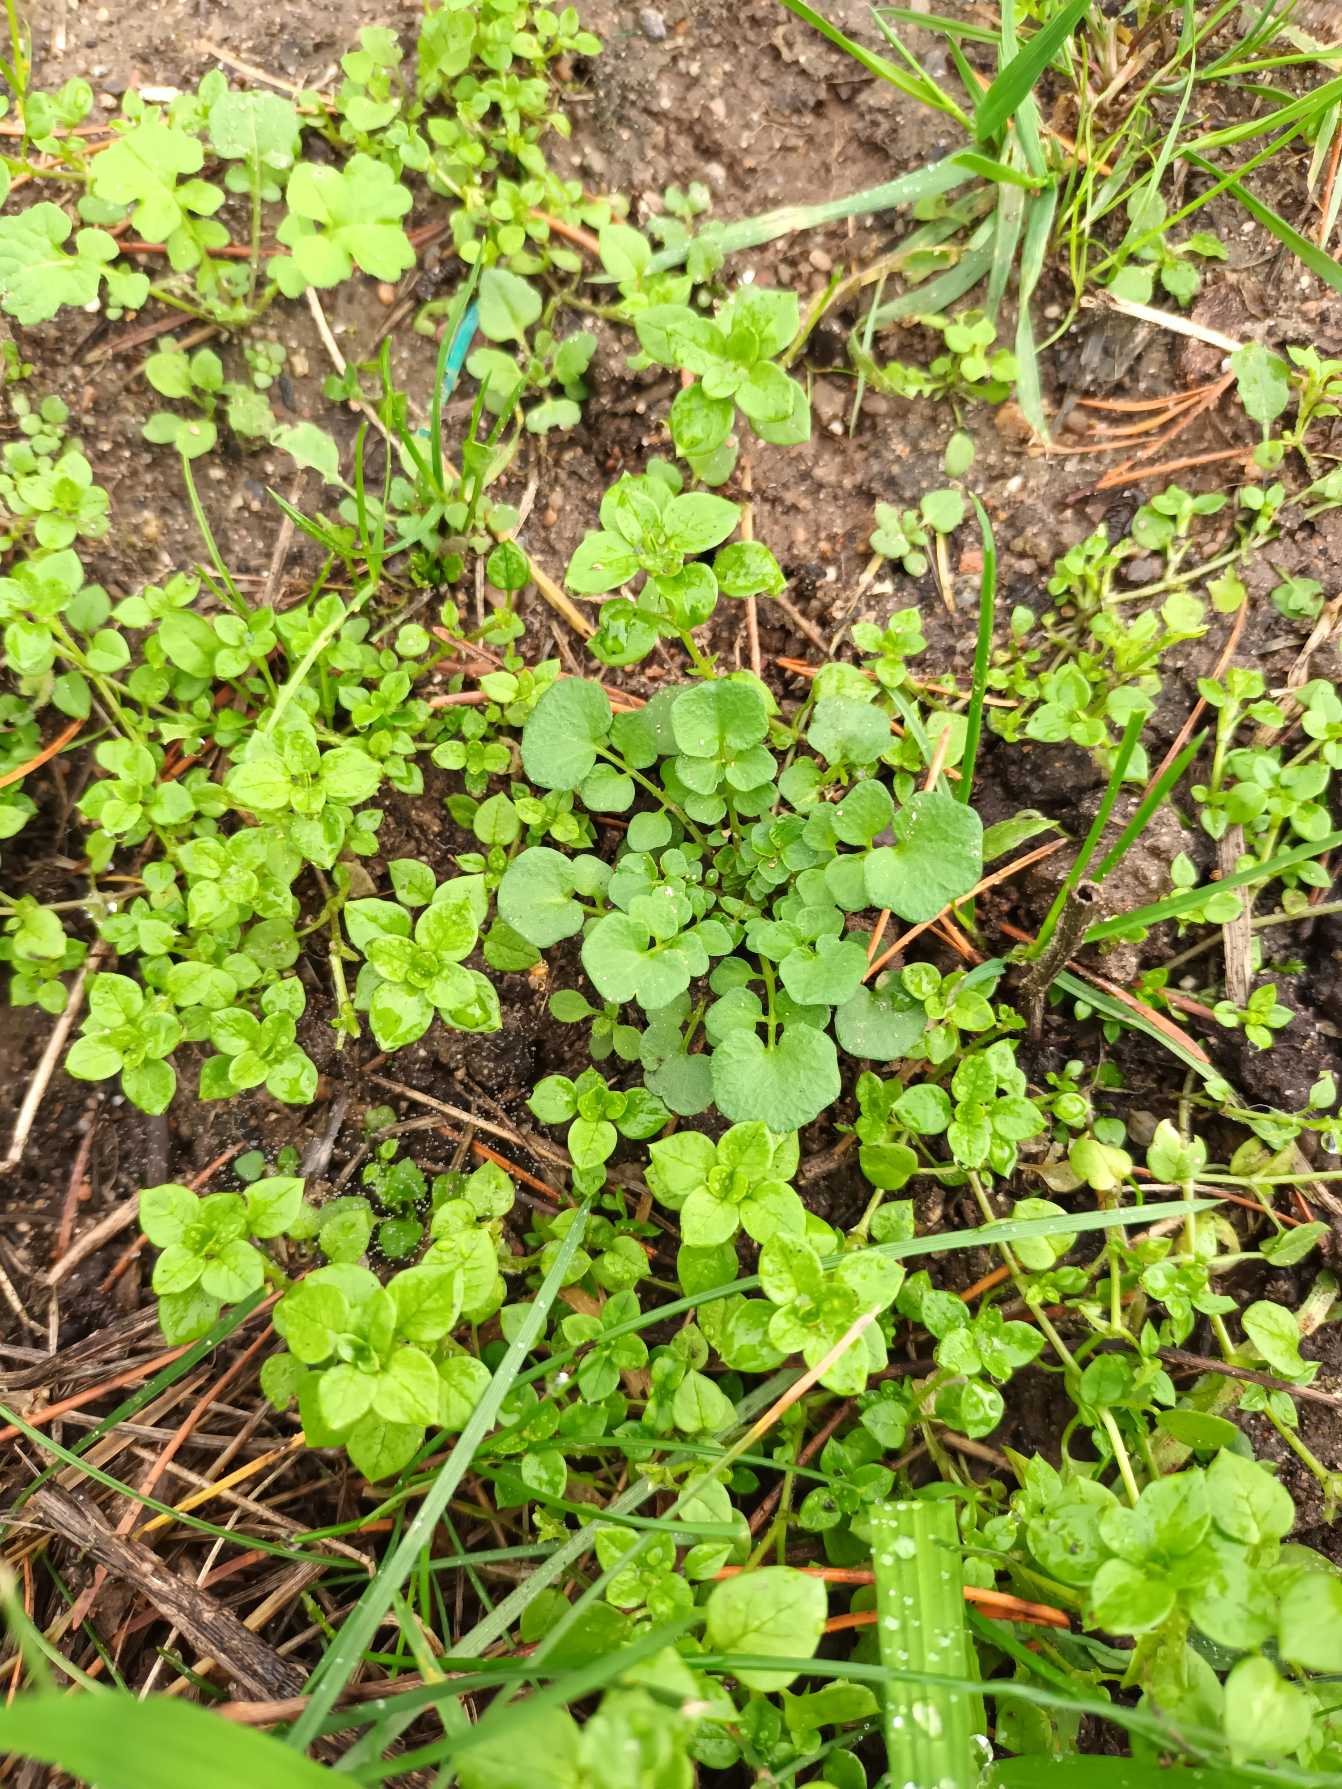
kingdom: Plantae
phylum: Tracheophyta
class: Magnoliopsida
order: Brassicales
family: Brassicaceae
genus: Cardamine
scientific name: Cardamine hirsuta
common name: Roset-springklap
